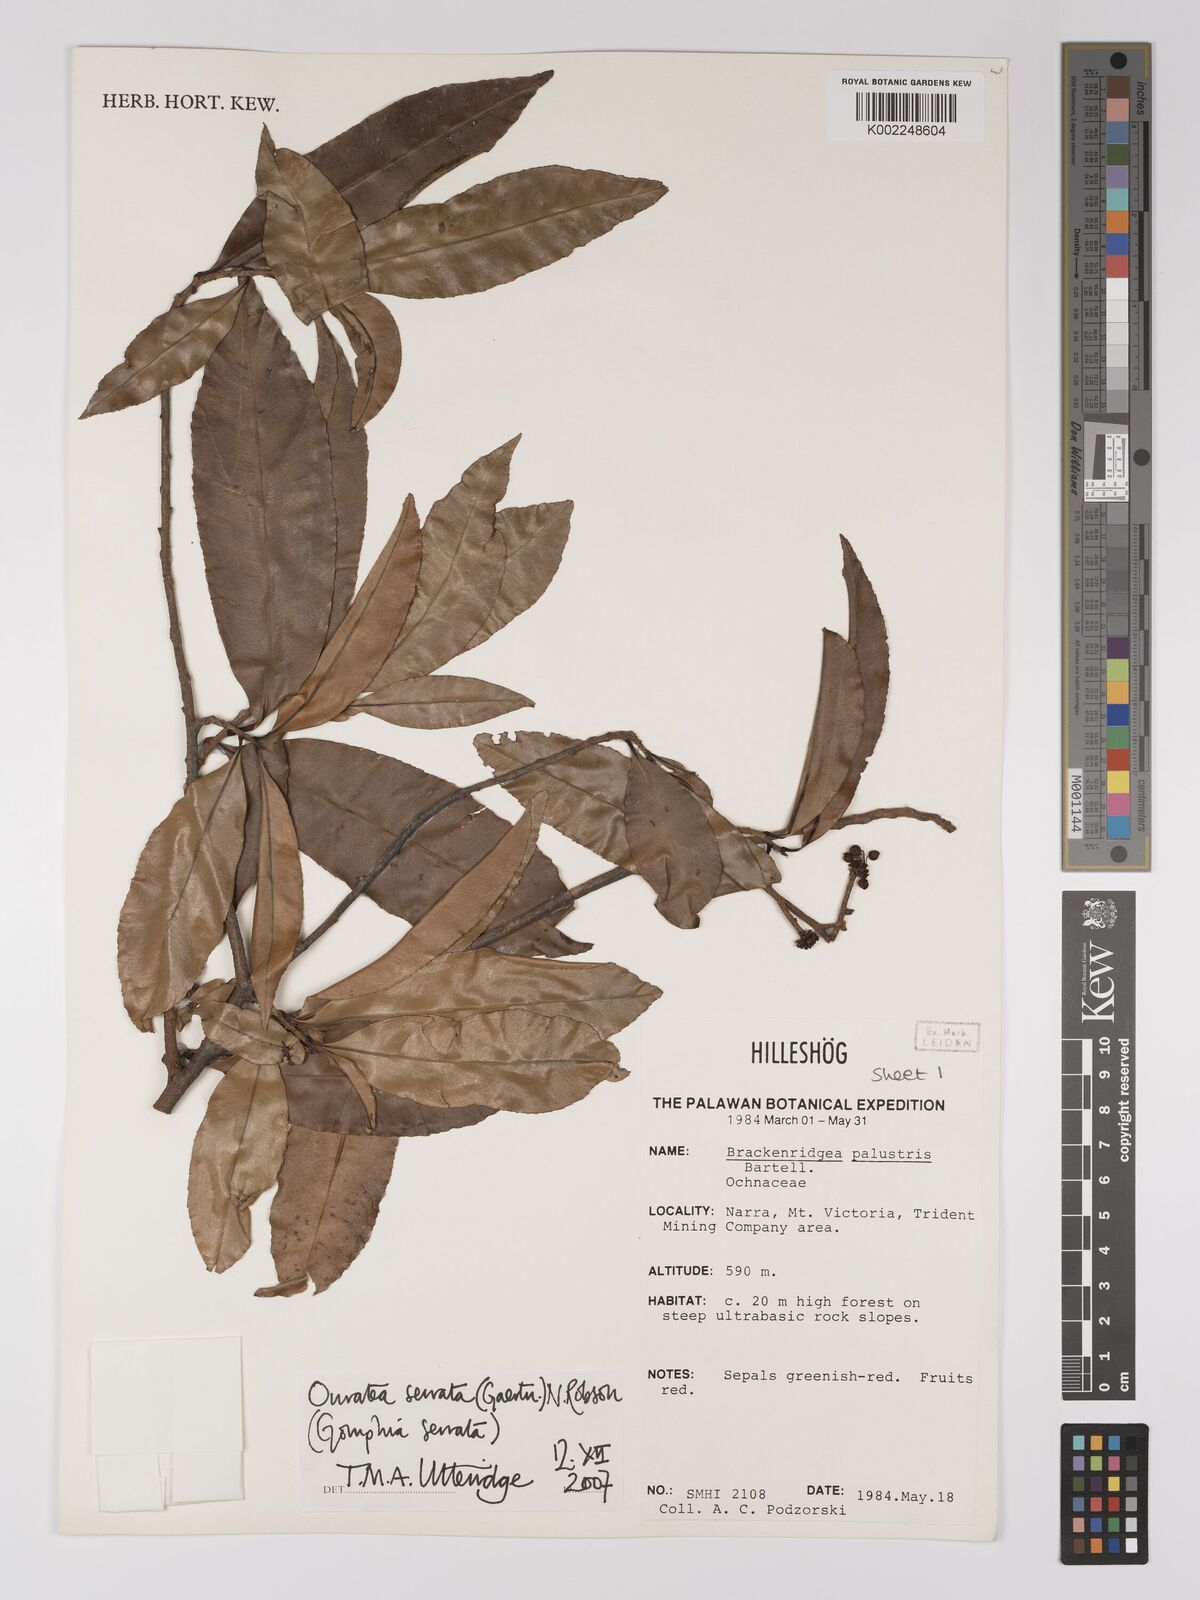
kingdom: Plantae
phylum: Tracheophyta
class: Magnoliopsida
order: Malpighiales
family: Ochnaceae
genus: Gomphia
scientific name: Gomphia serrata
